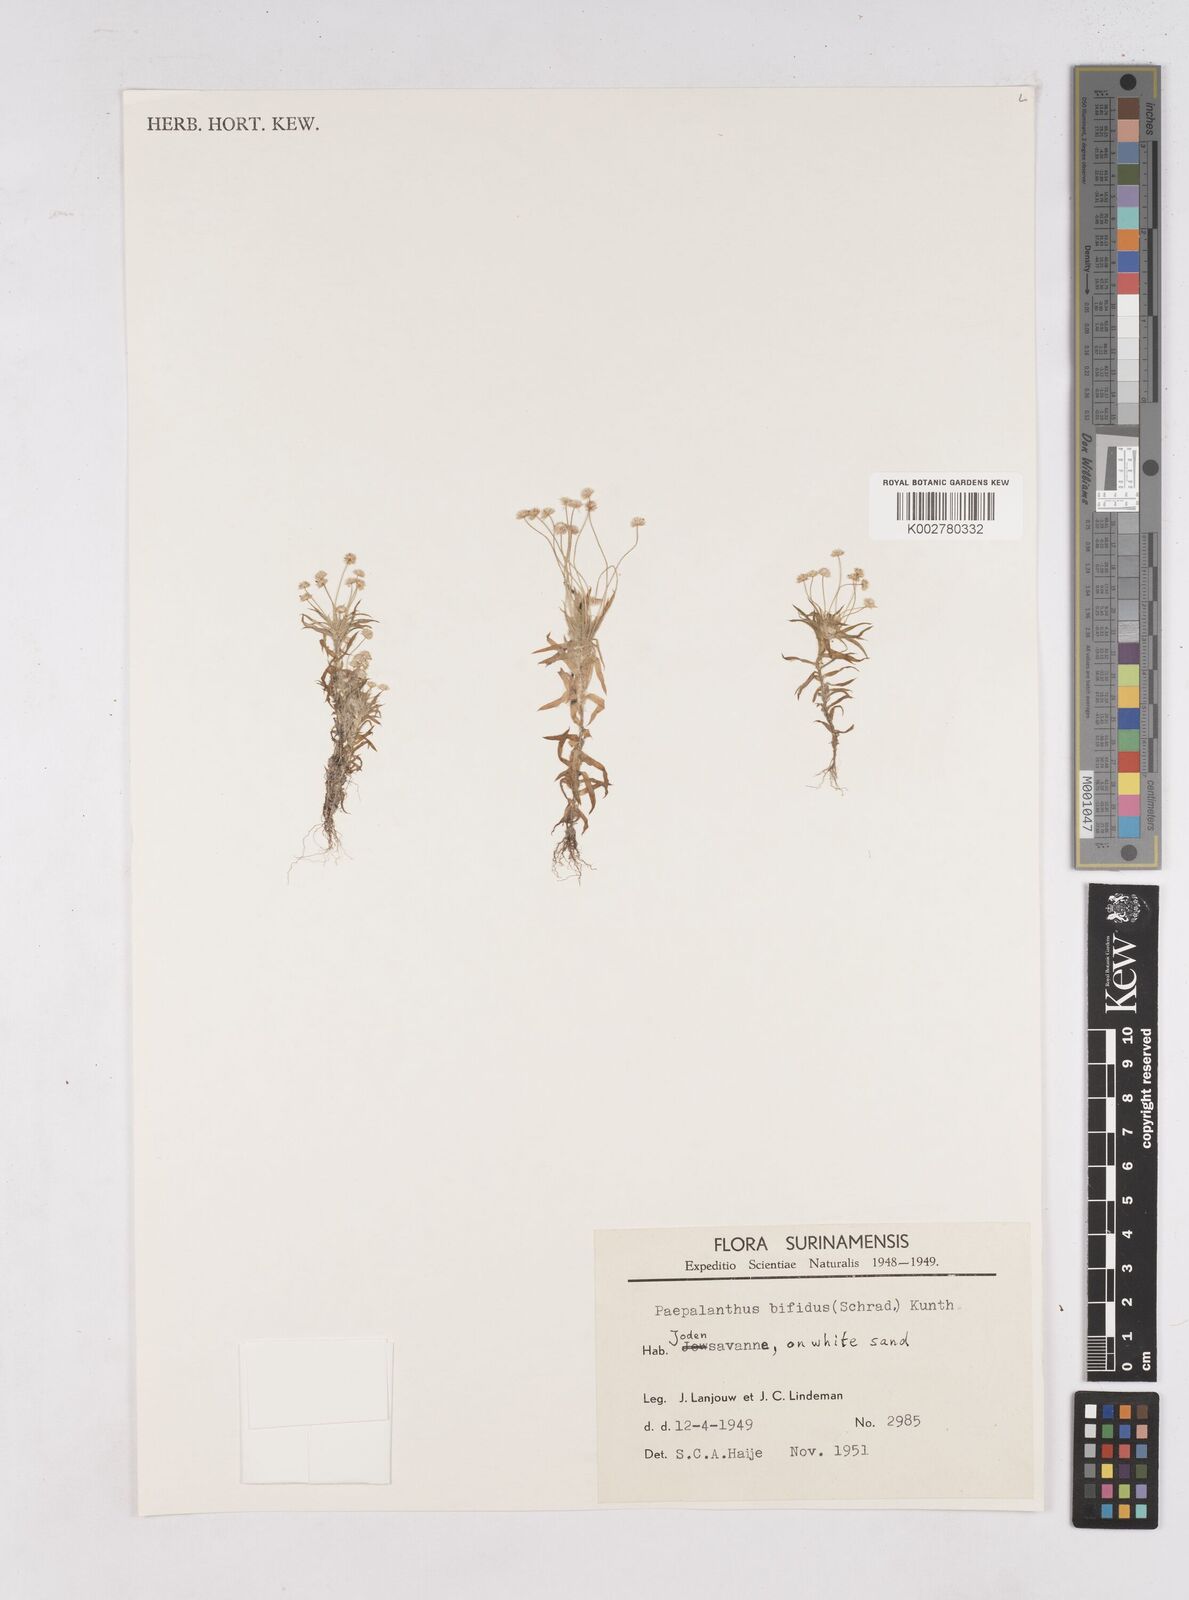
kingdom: Plantae
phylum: Tracheophyta
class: Liliopsida
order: Poales
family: Eriocaulaceae
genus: Paepalanthus
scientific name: Paepalanthus bifidus
